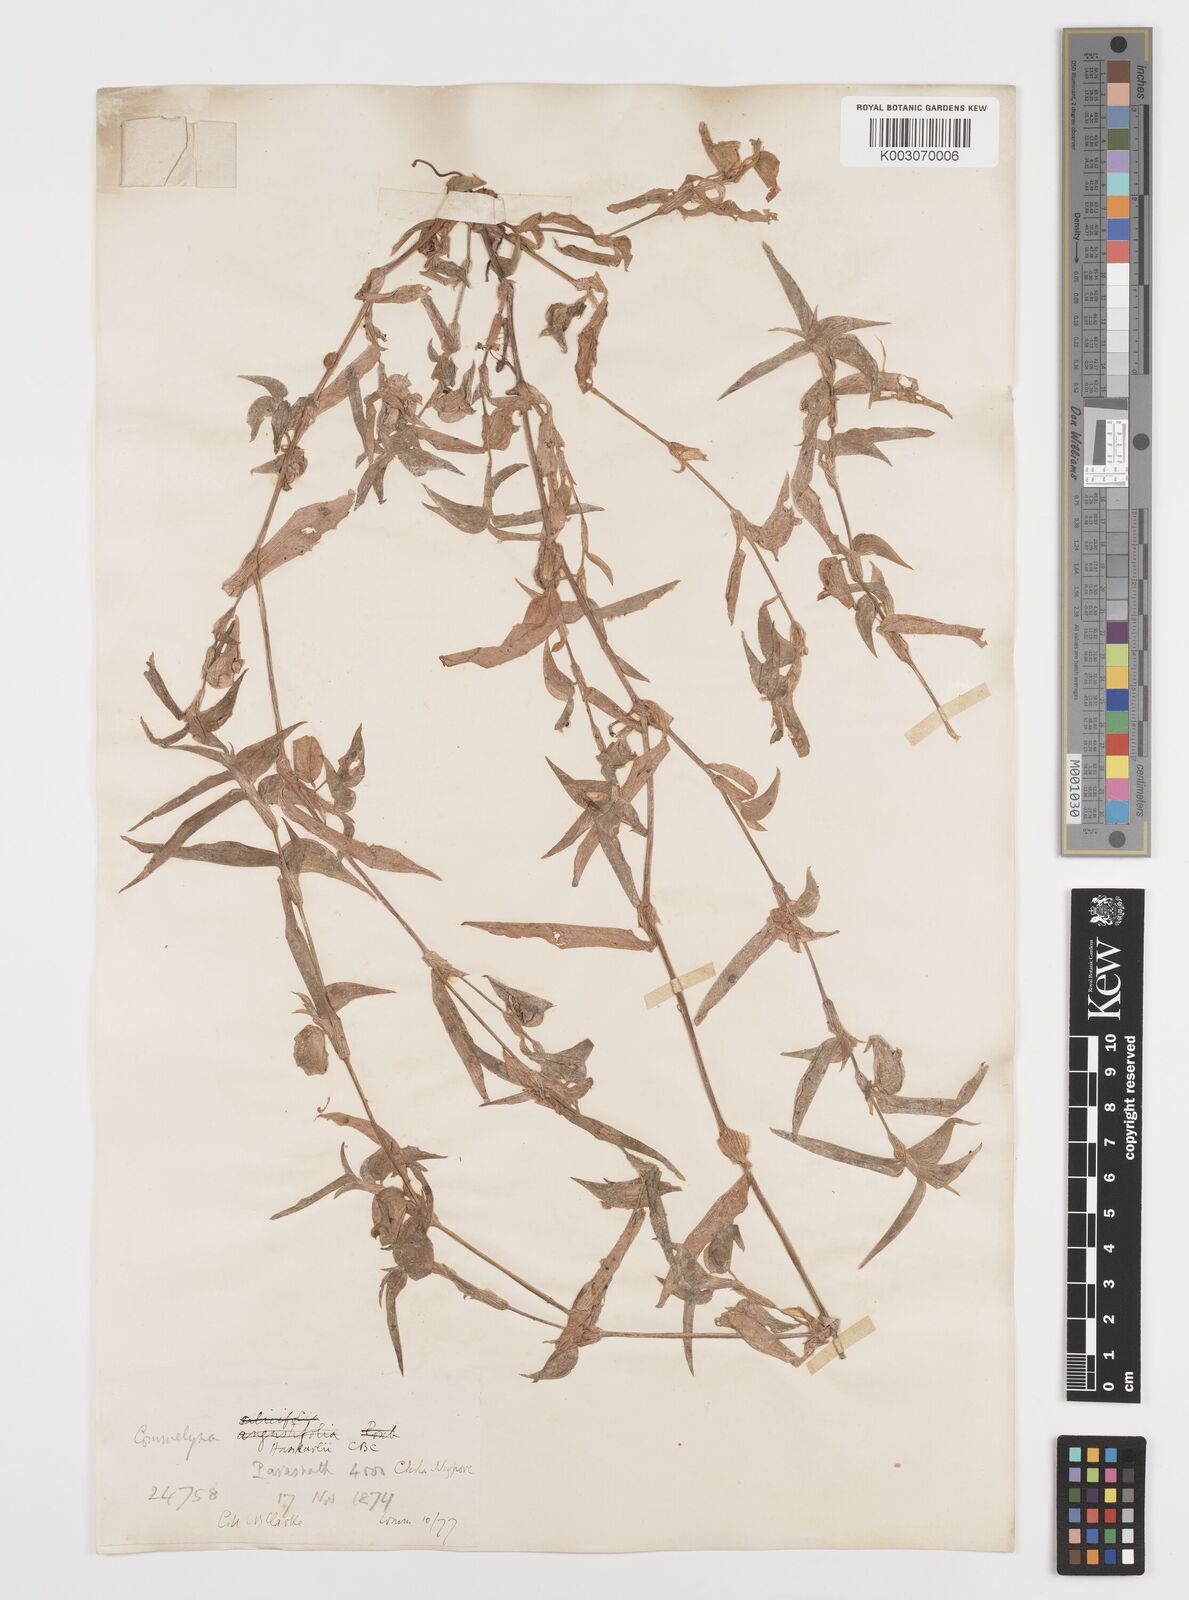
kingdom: Plantae
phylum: Tracheophyta
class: Liliopsida
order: Commelinales
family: Commelinaceae
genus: Commelina
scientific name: Commelina caroliniana
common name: Carolina dayflower
